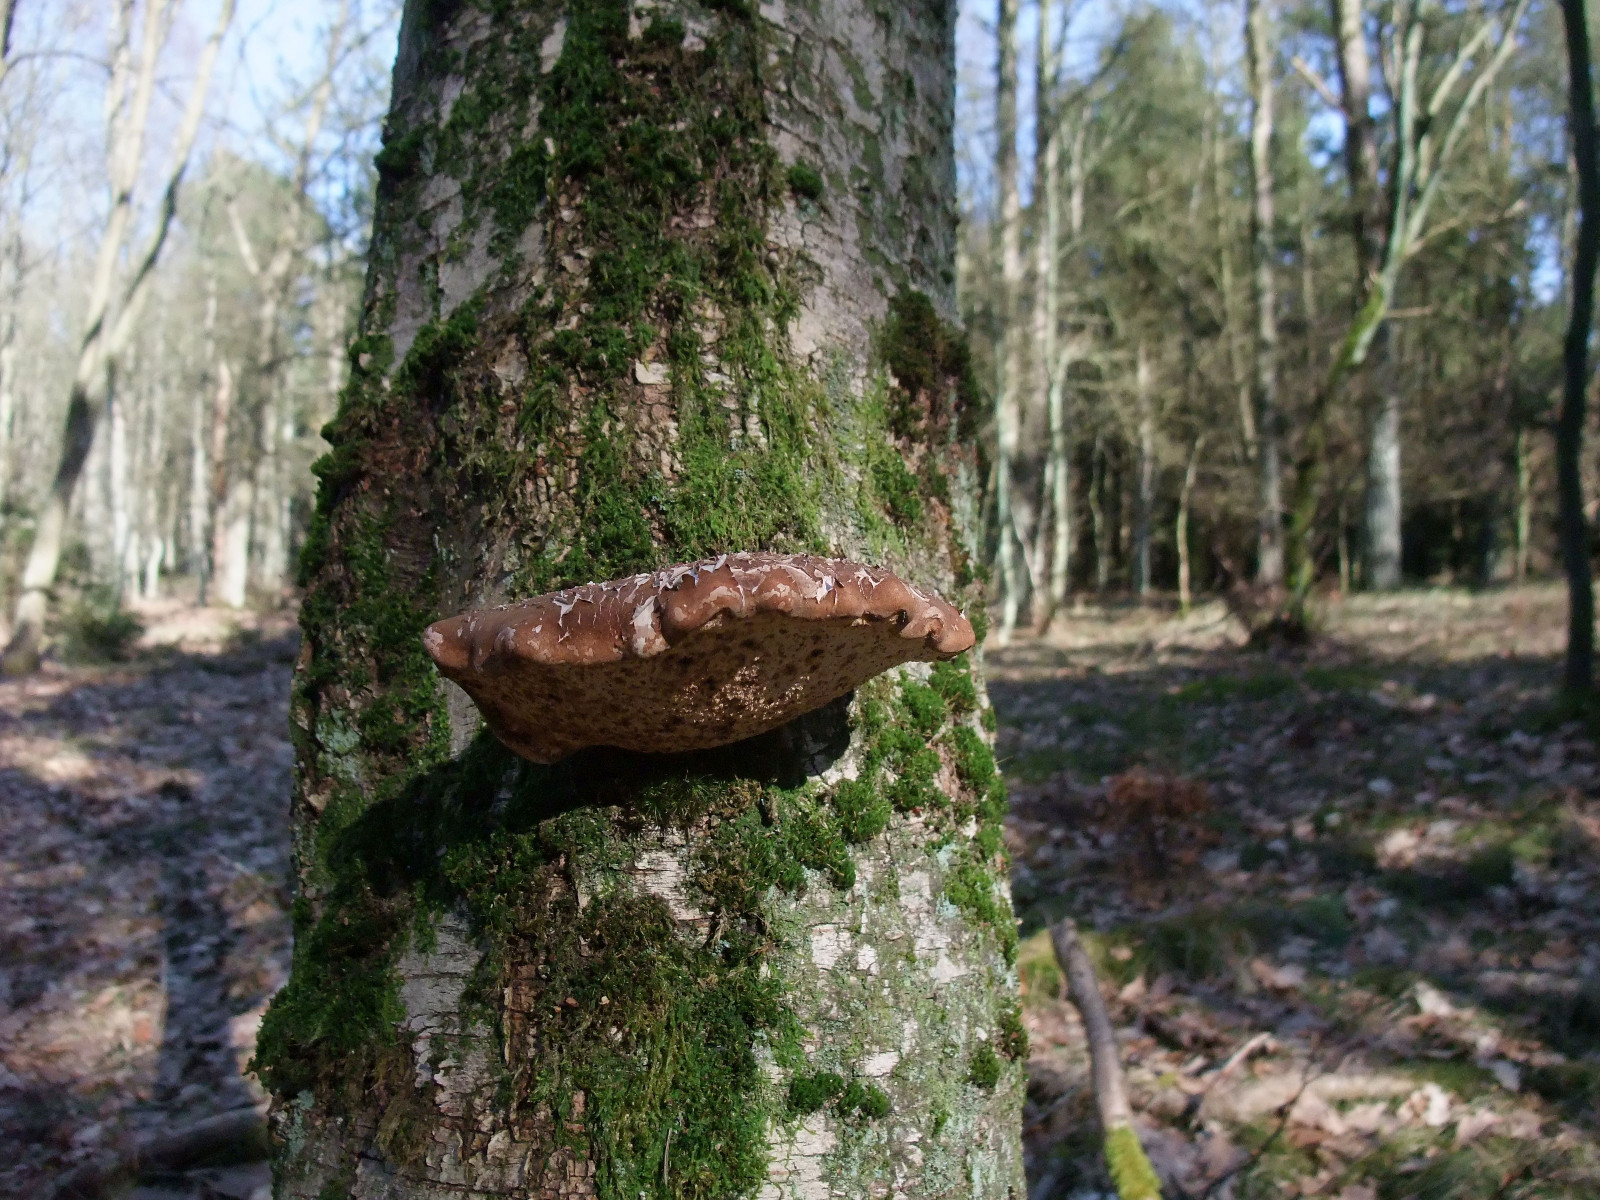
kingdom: Fungi
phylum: Basidiomycota
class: Agaricomycetes
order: Polyporales
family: Fomitopsidaceae
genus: Fomitopsis
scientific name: Fomitopsis betulina
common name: birkeporesvamp
